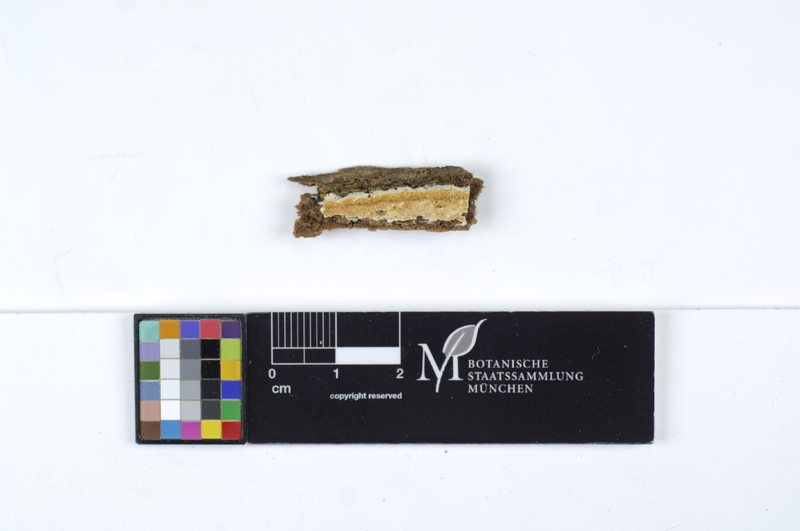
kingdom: Fungi
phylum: Basidiomycota
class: Agaricomycetes
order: Polyporales
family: Irpicaceae
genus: Byssomerulius
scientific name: Byssomerulius albostramineus
